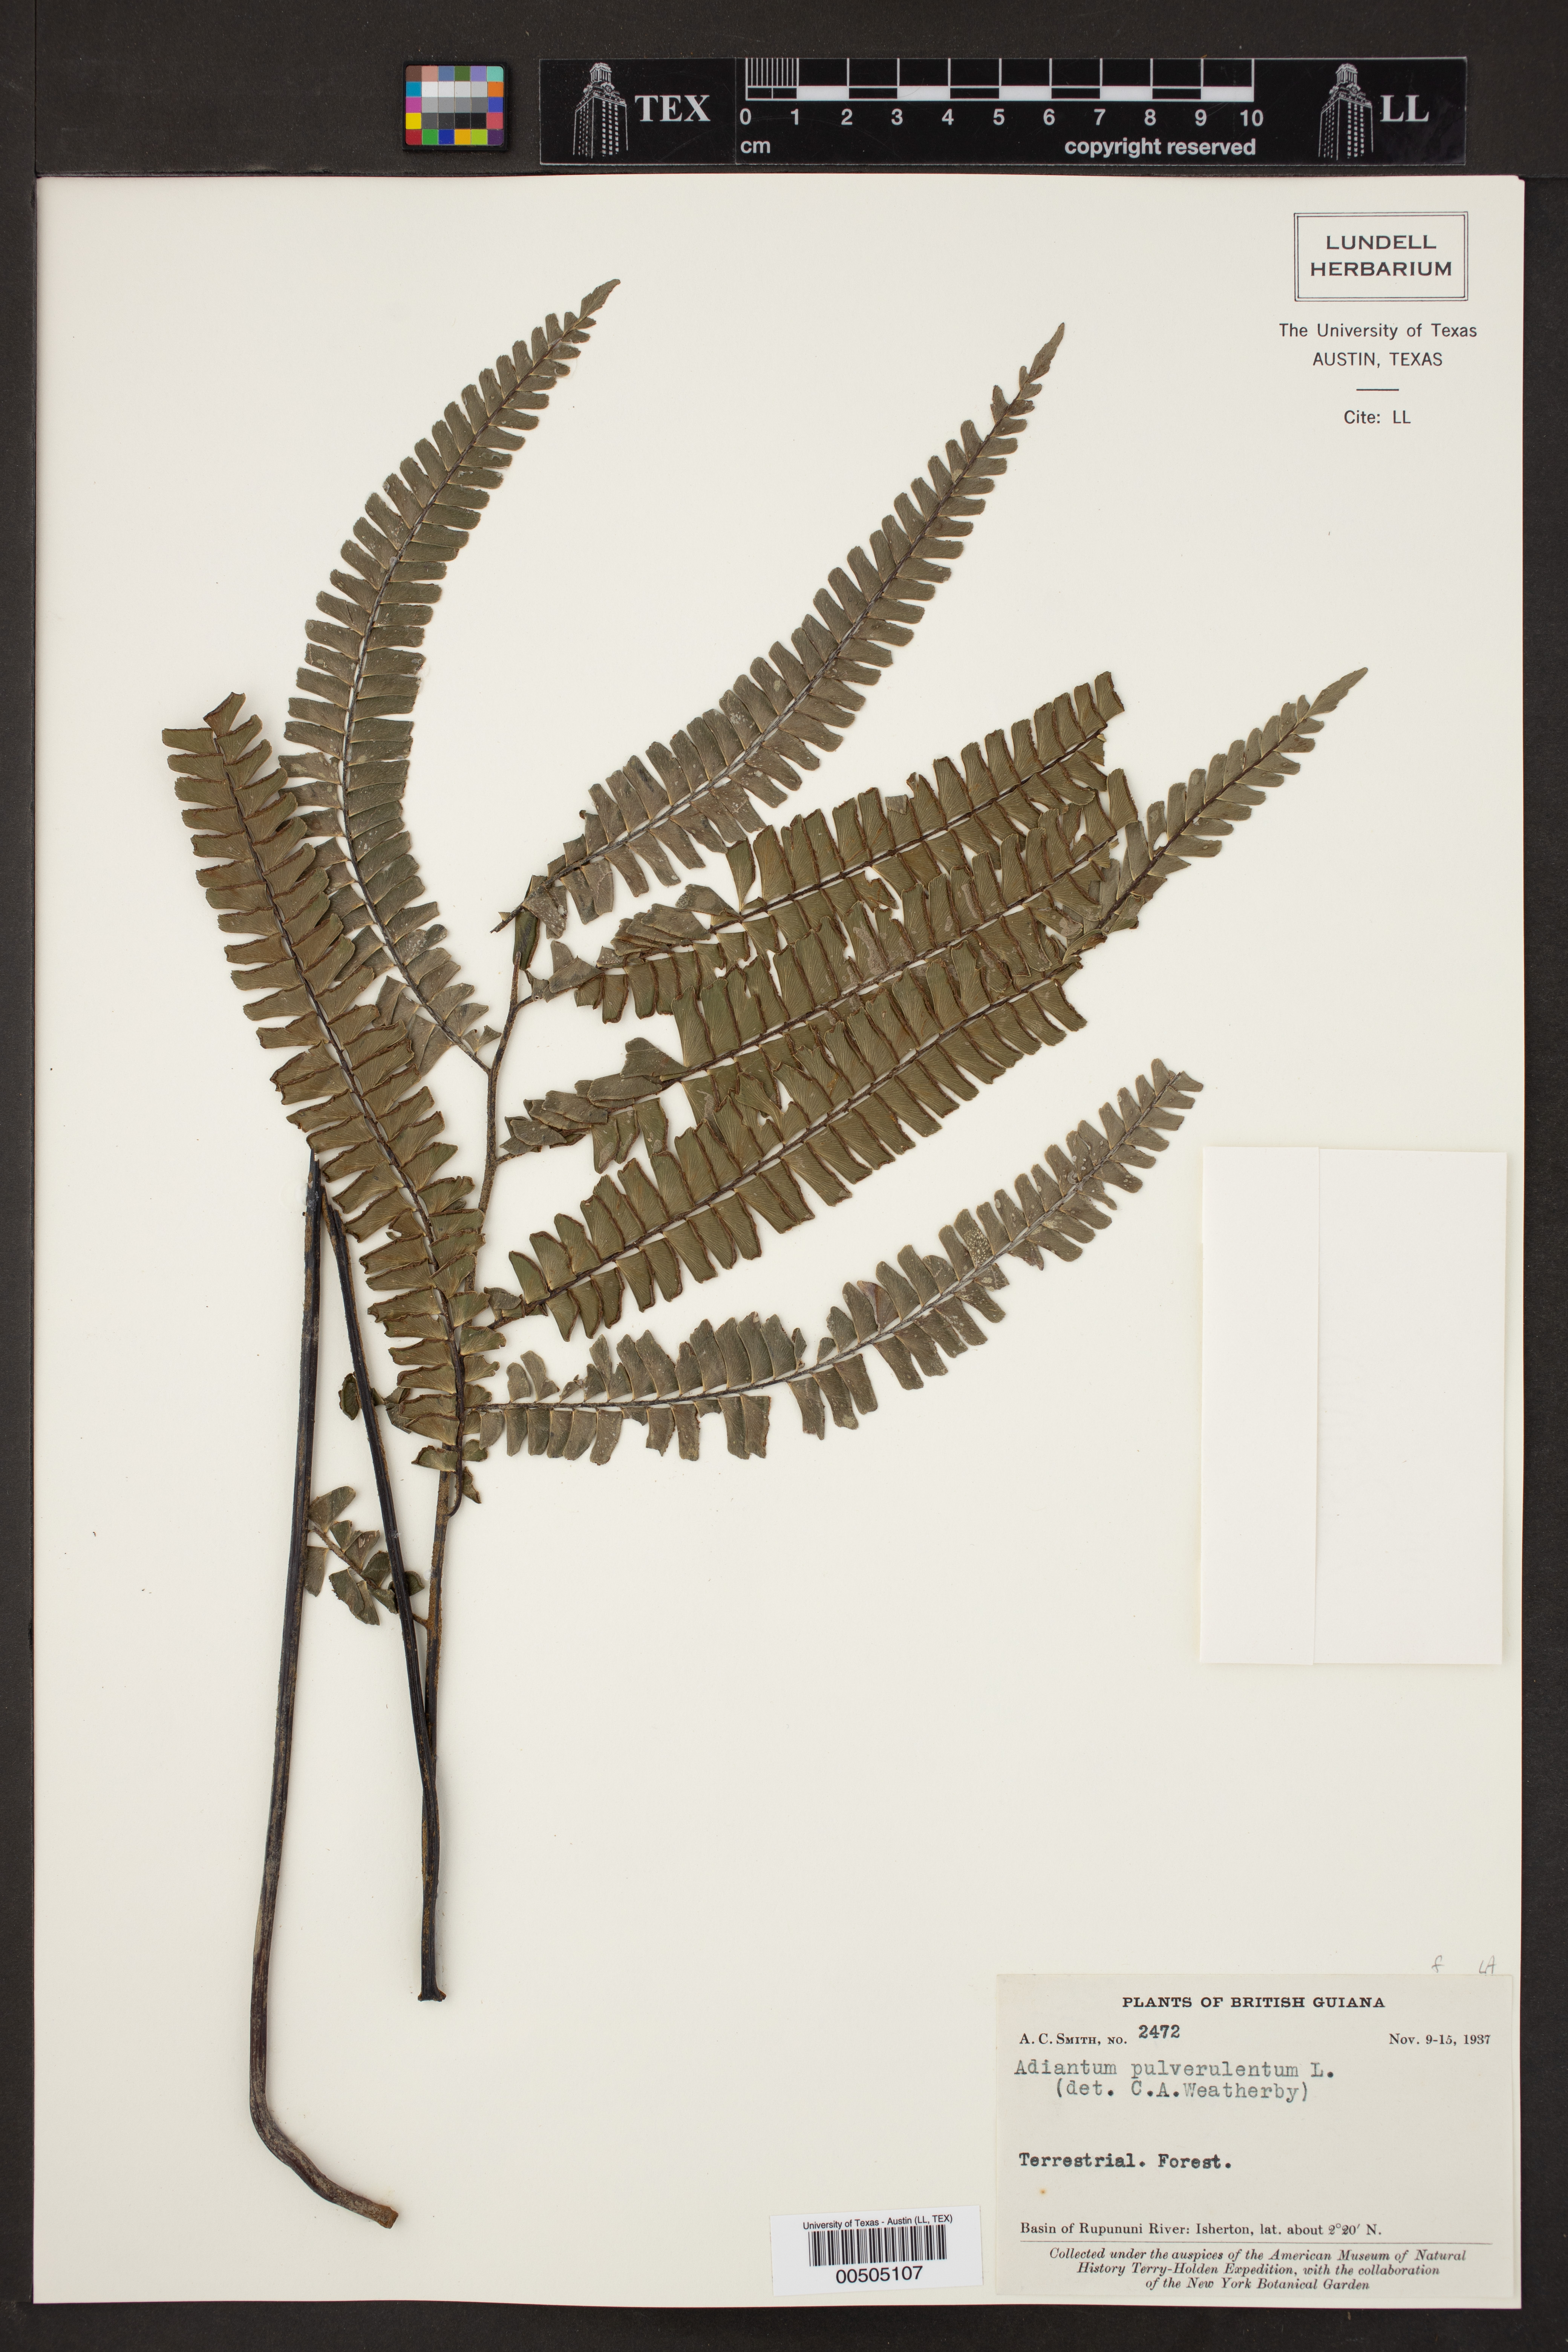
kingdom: Plantae
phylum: Tracheophyta
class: Polypodiopsida
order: Polypodiales
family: Pteridaceae
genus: Adiantum
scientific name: Adiantum pulverulentum
